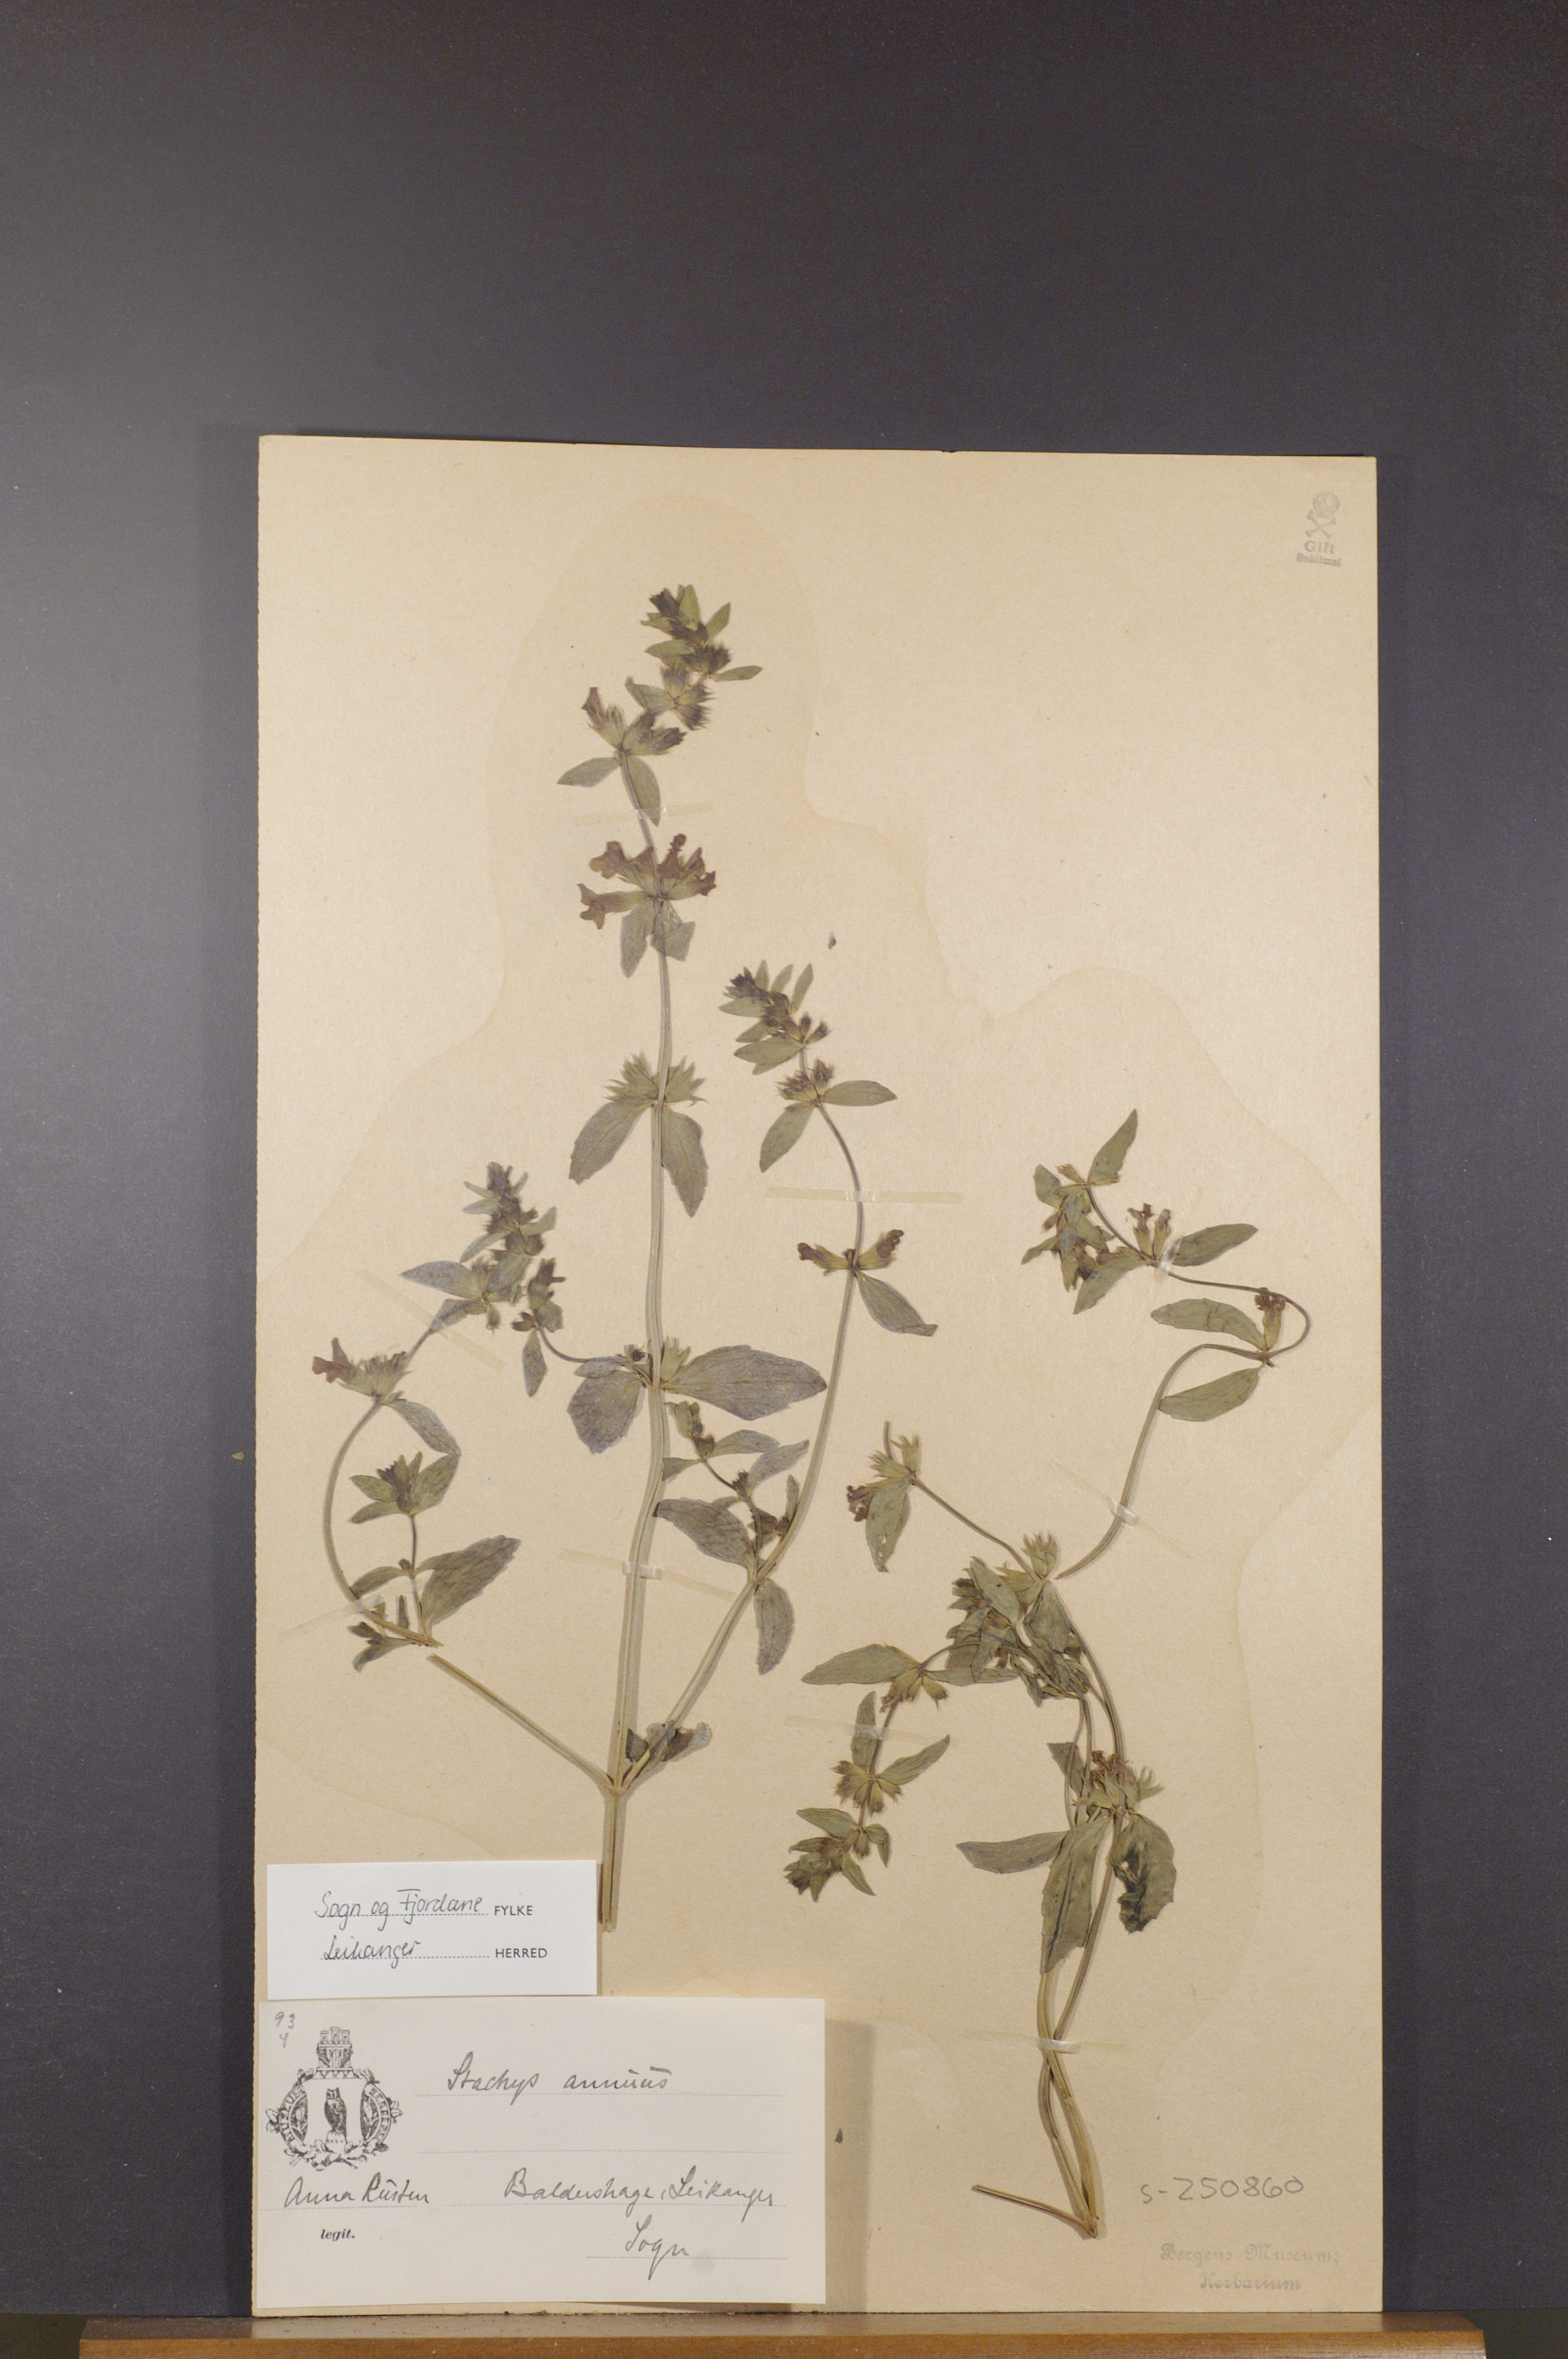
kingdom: Plantae
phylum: Tracheophyta
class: Magnoliopsida
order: Lamiales
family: Lamiaceae
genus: Stachys
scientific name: Stachys annua
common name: Annual yellow-woundwort
